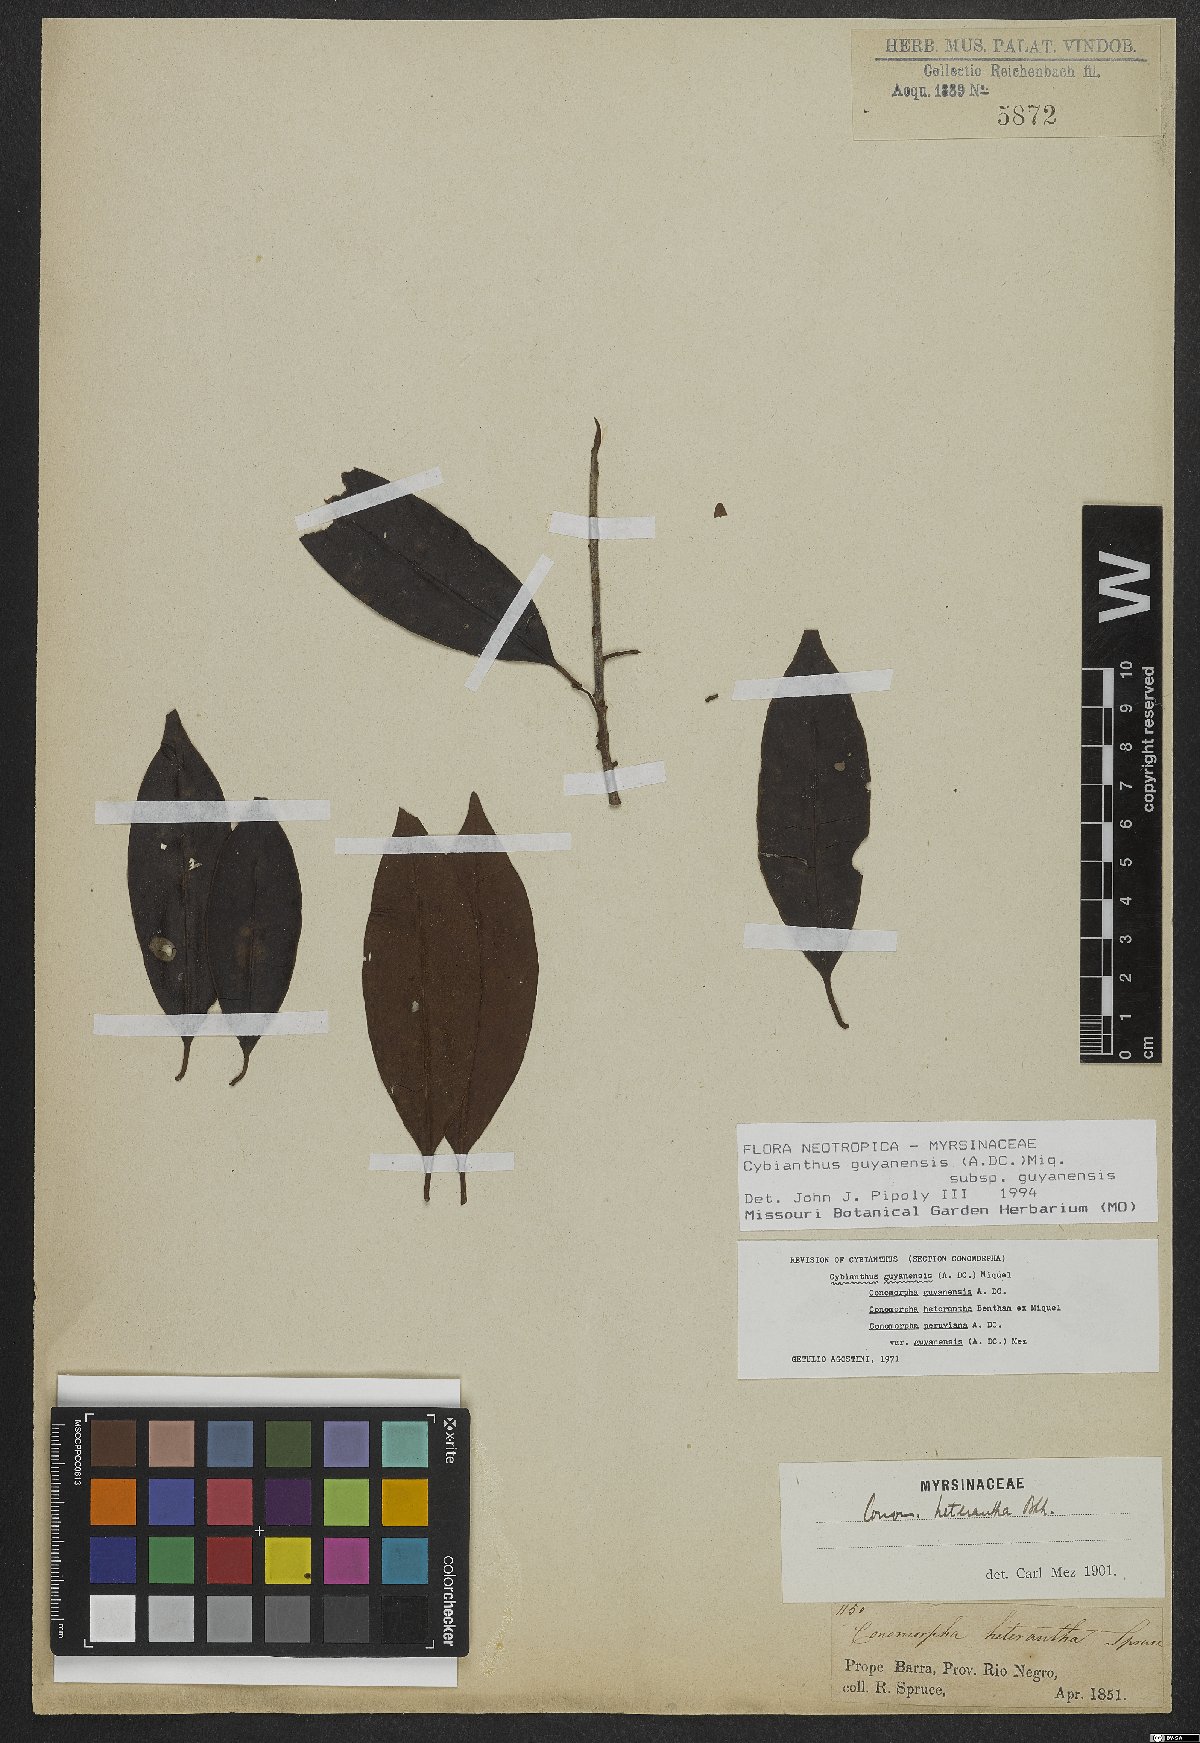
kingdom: Plantae
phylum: Tracheophyta
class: Magnoliopsida
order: Ericales
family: Primulaceae
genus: Cybianthus
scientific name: Cybianthus guyanensis
